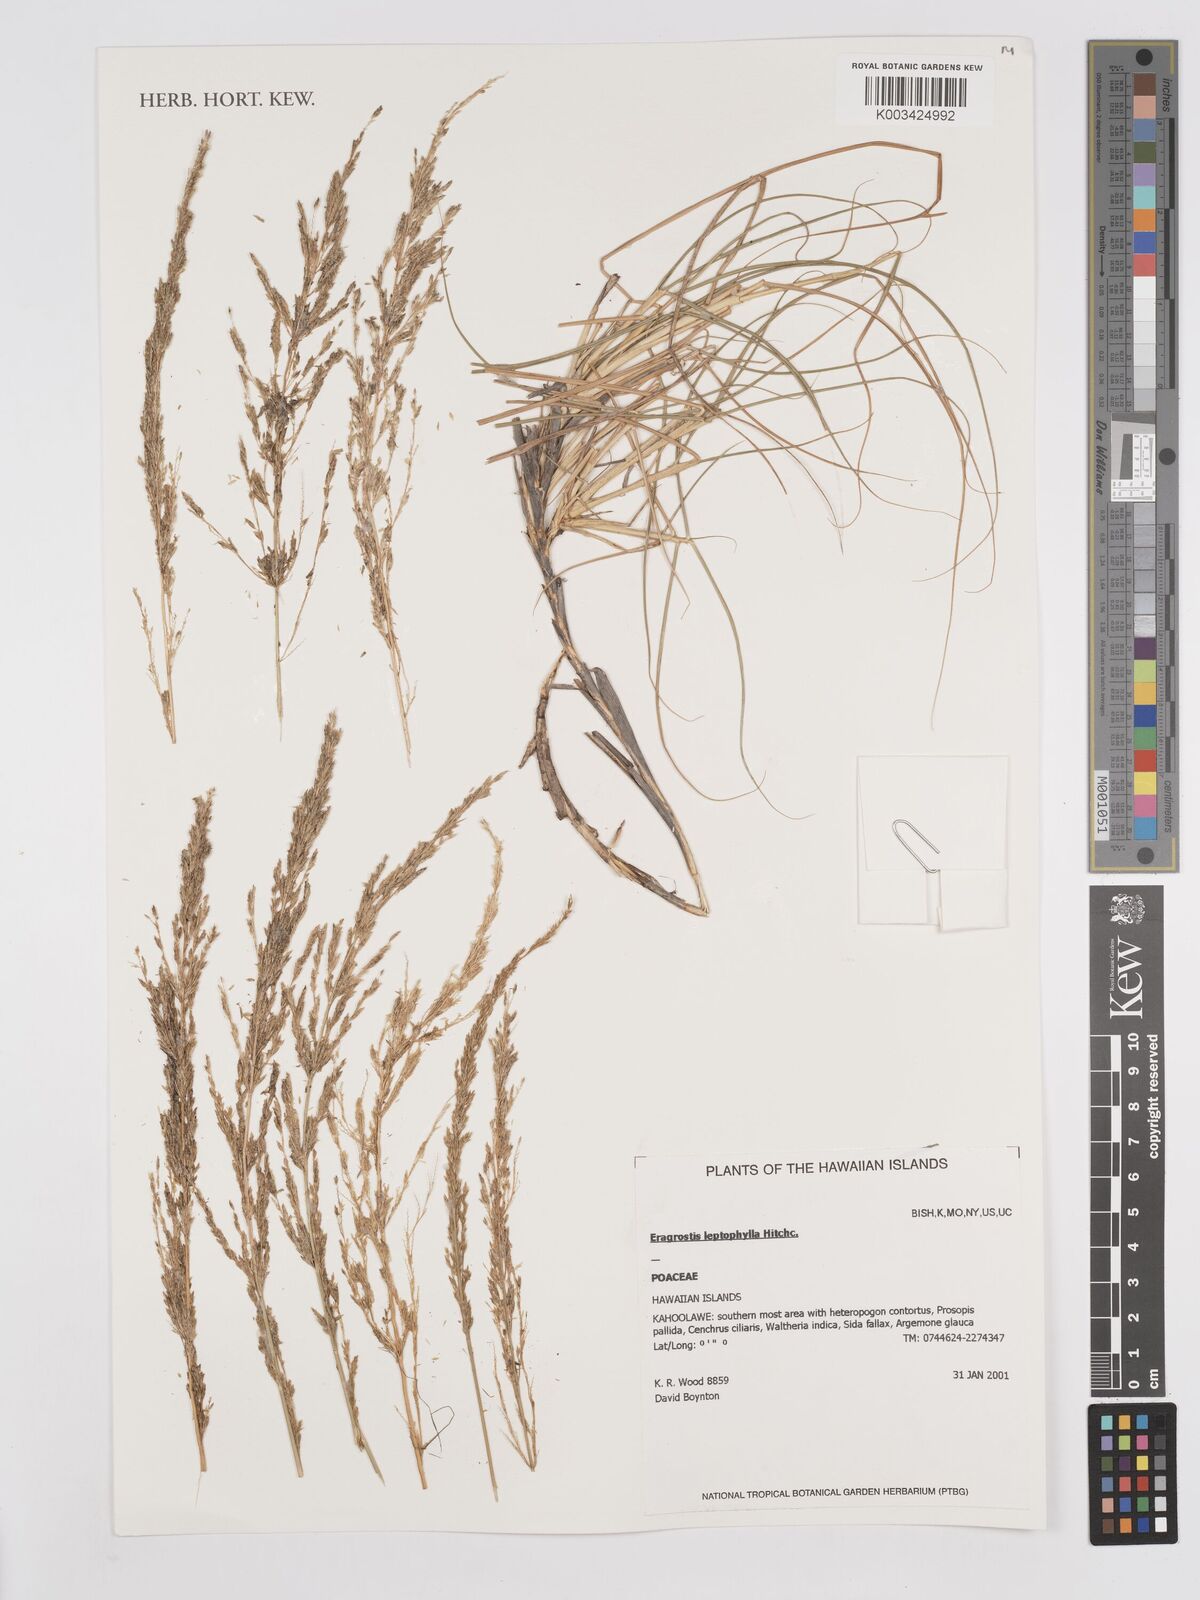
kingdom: Plantae
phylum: Tracheophyta
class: Liliopsida
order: Poales
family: Poaceae
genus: Eragrostis
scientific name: Eragrostis leptophylla
